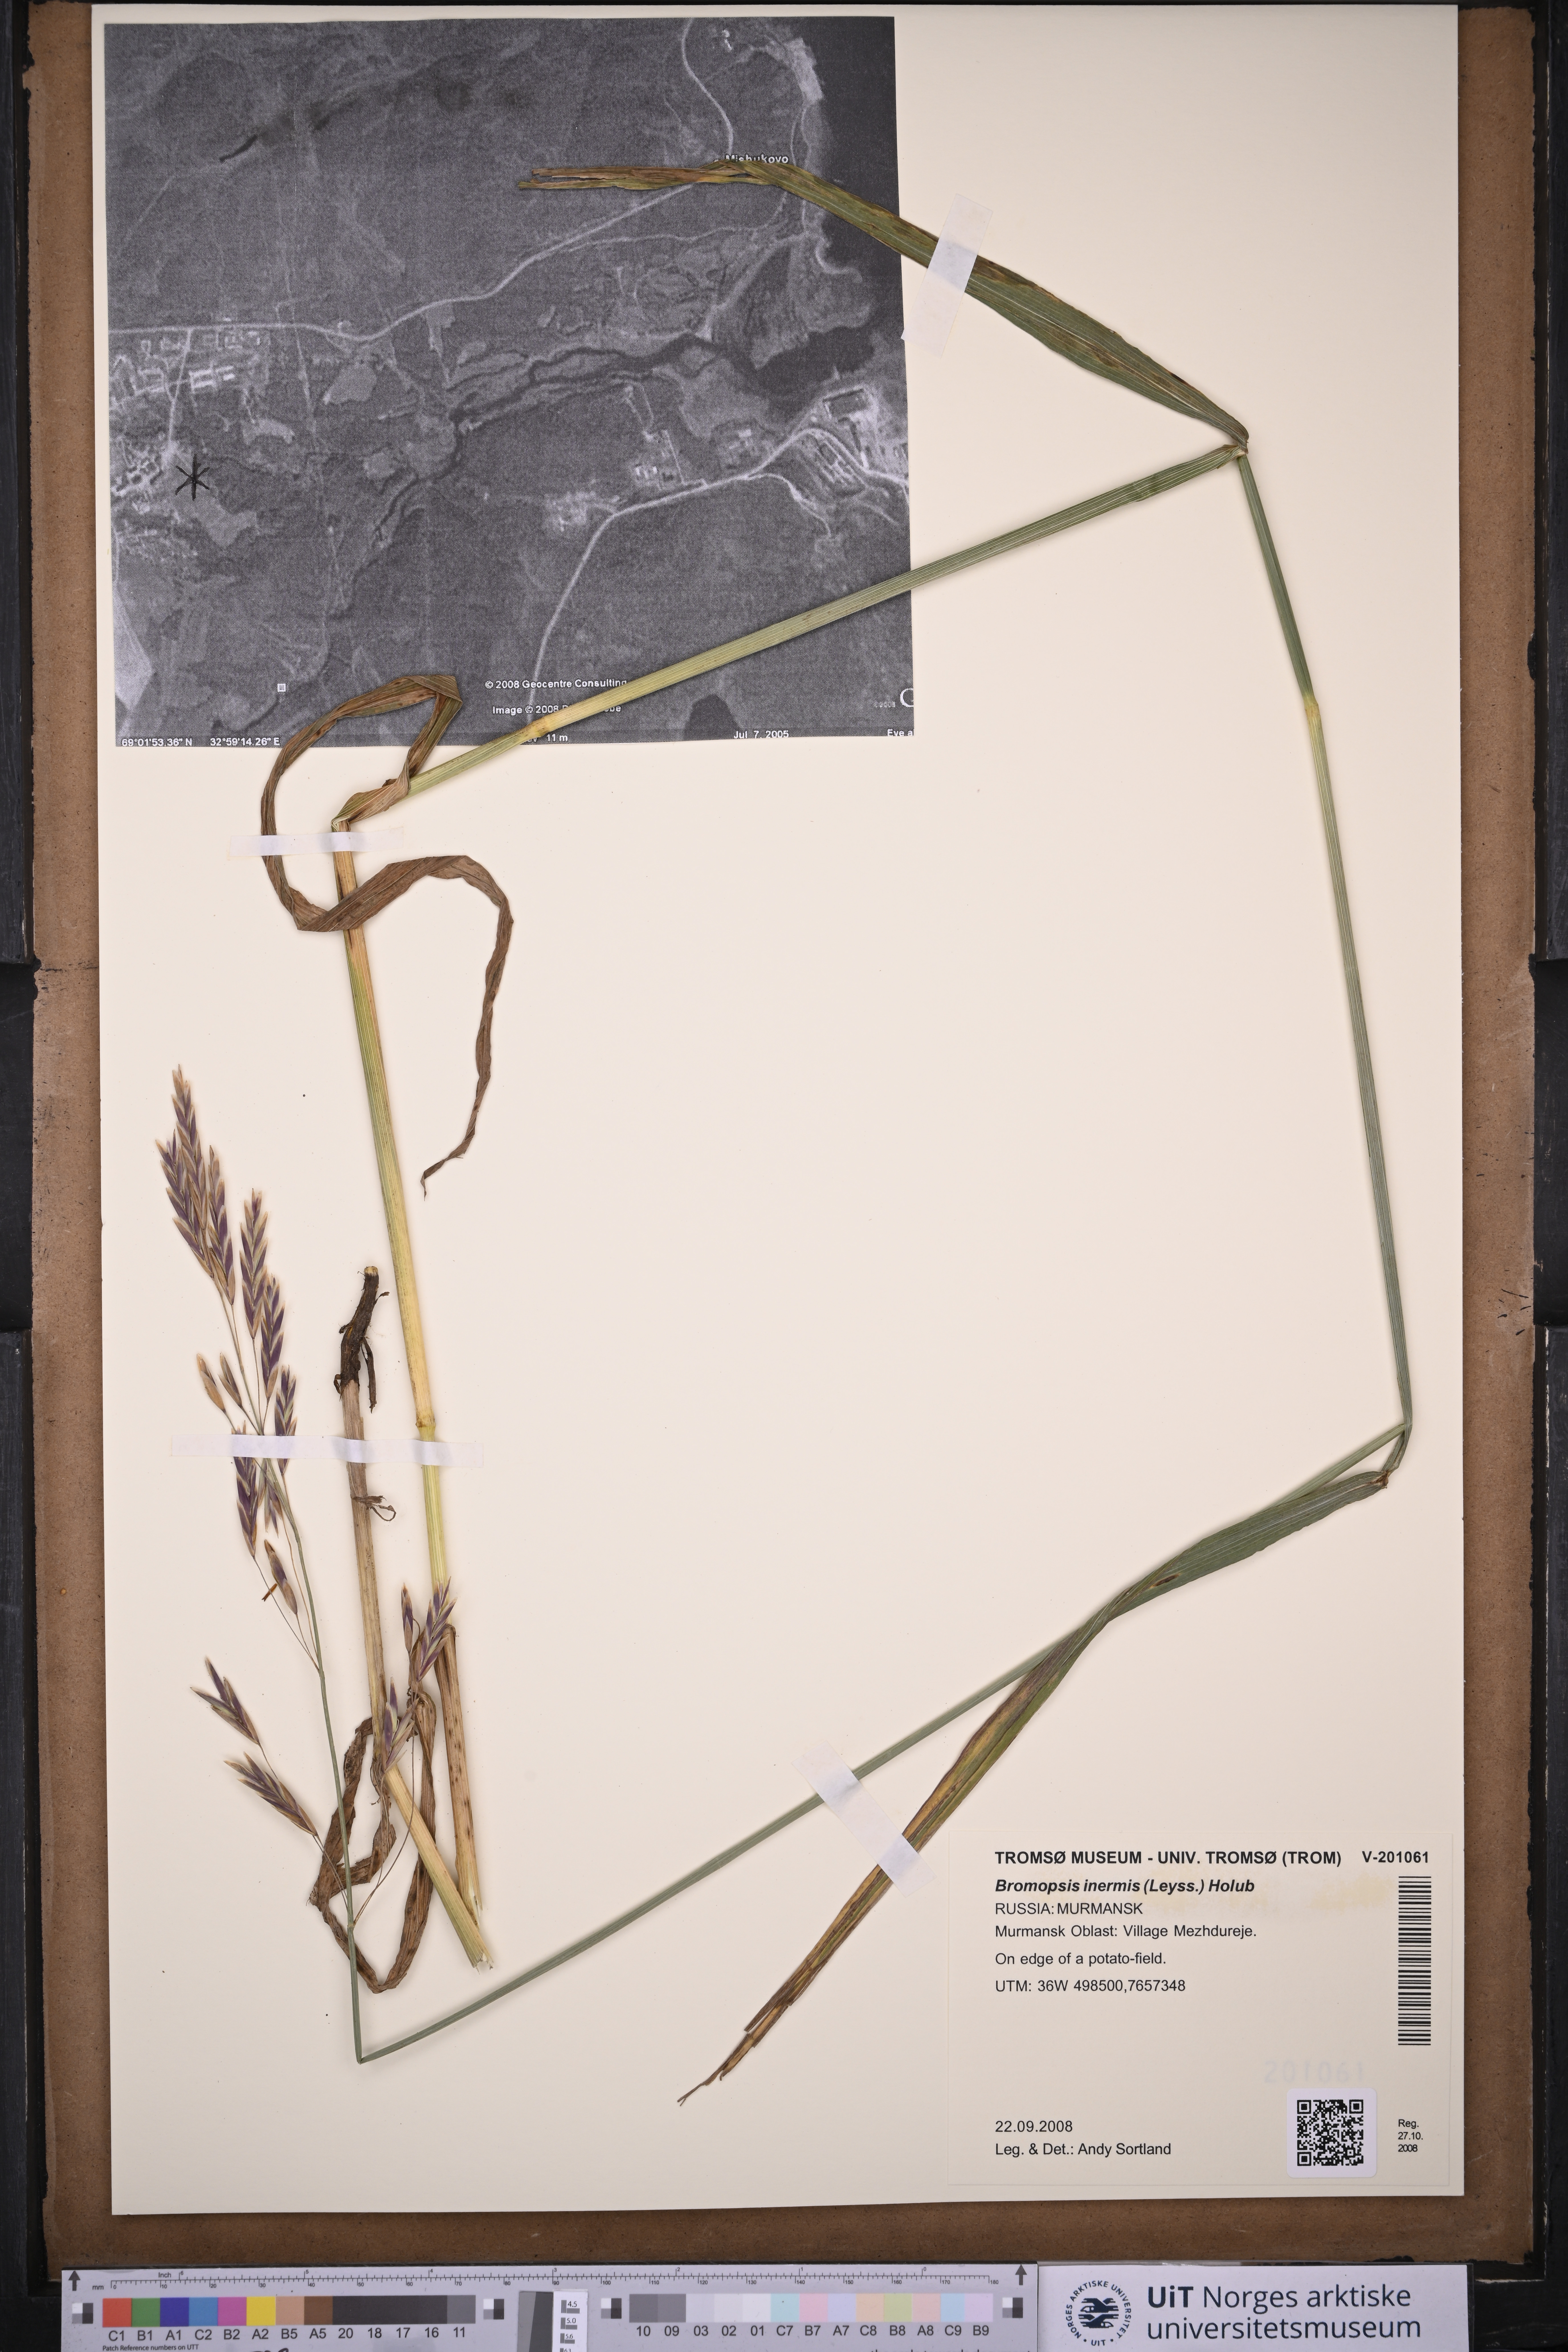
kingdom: Plantae
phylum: Tracheophyta
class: Liliopsida
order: Poales
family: Poaceae
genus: Bromus
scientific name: Bromus inermis
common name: Smooth brome
